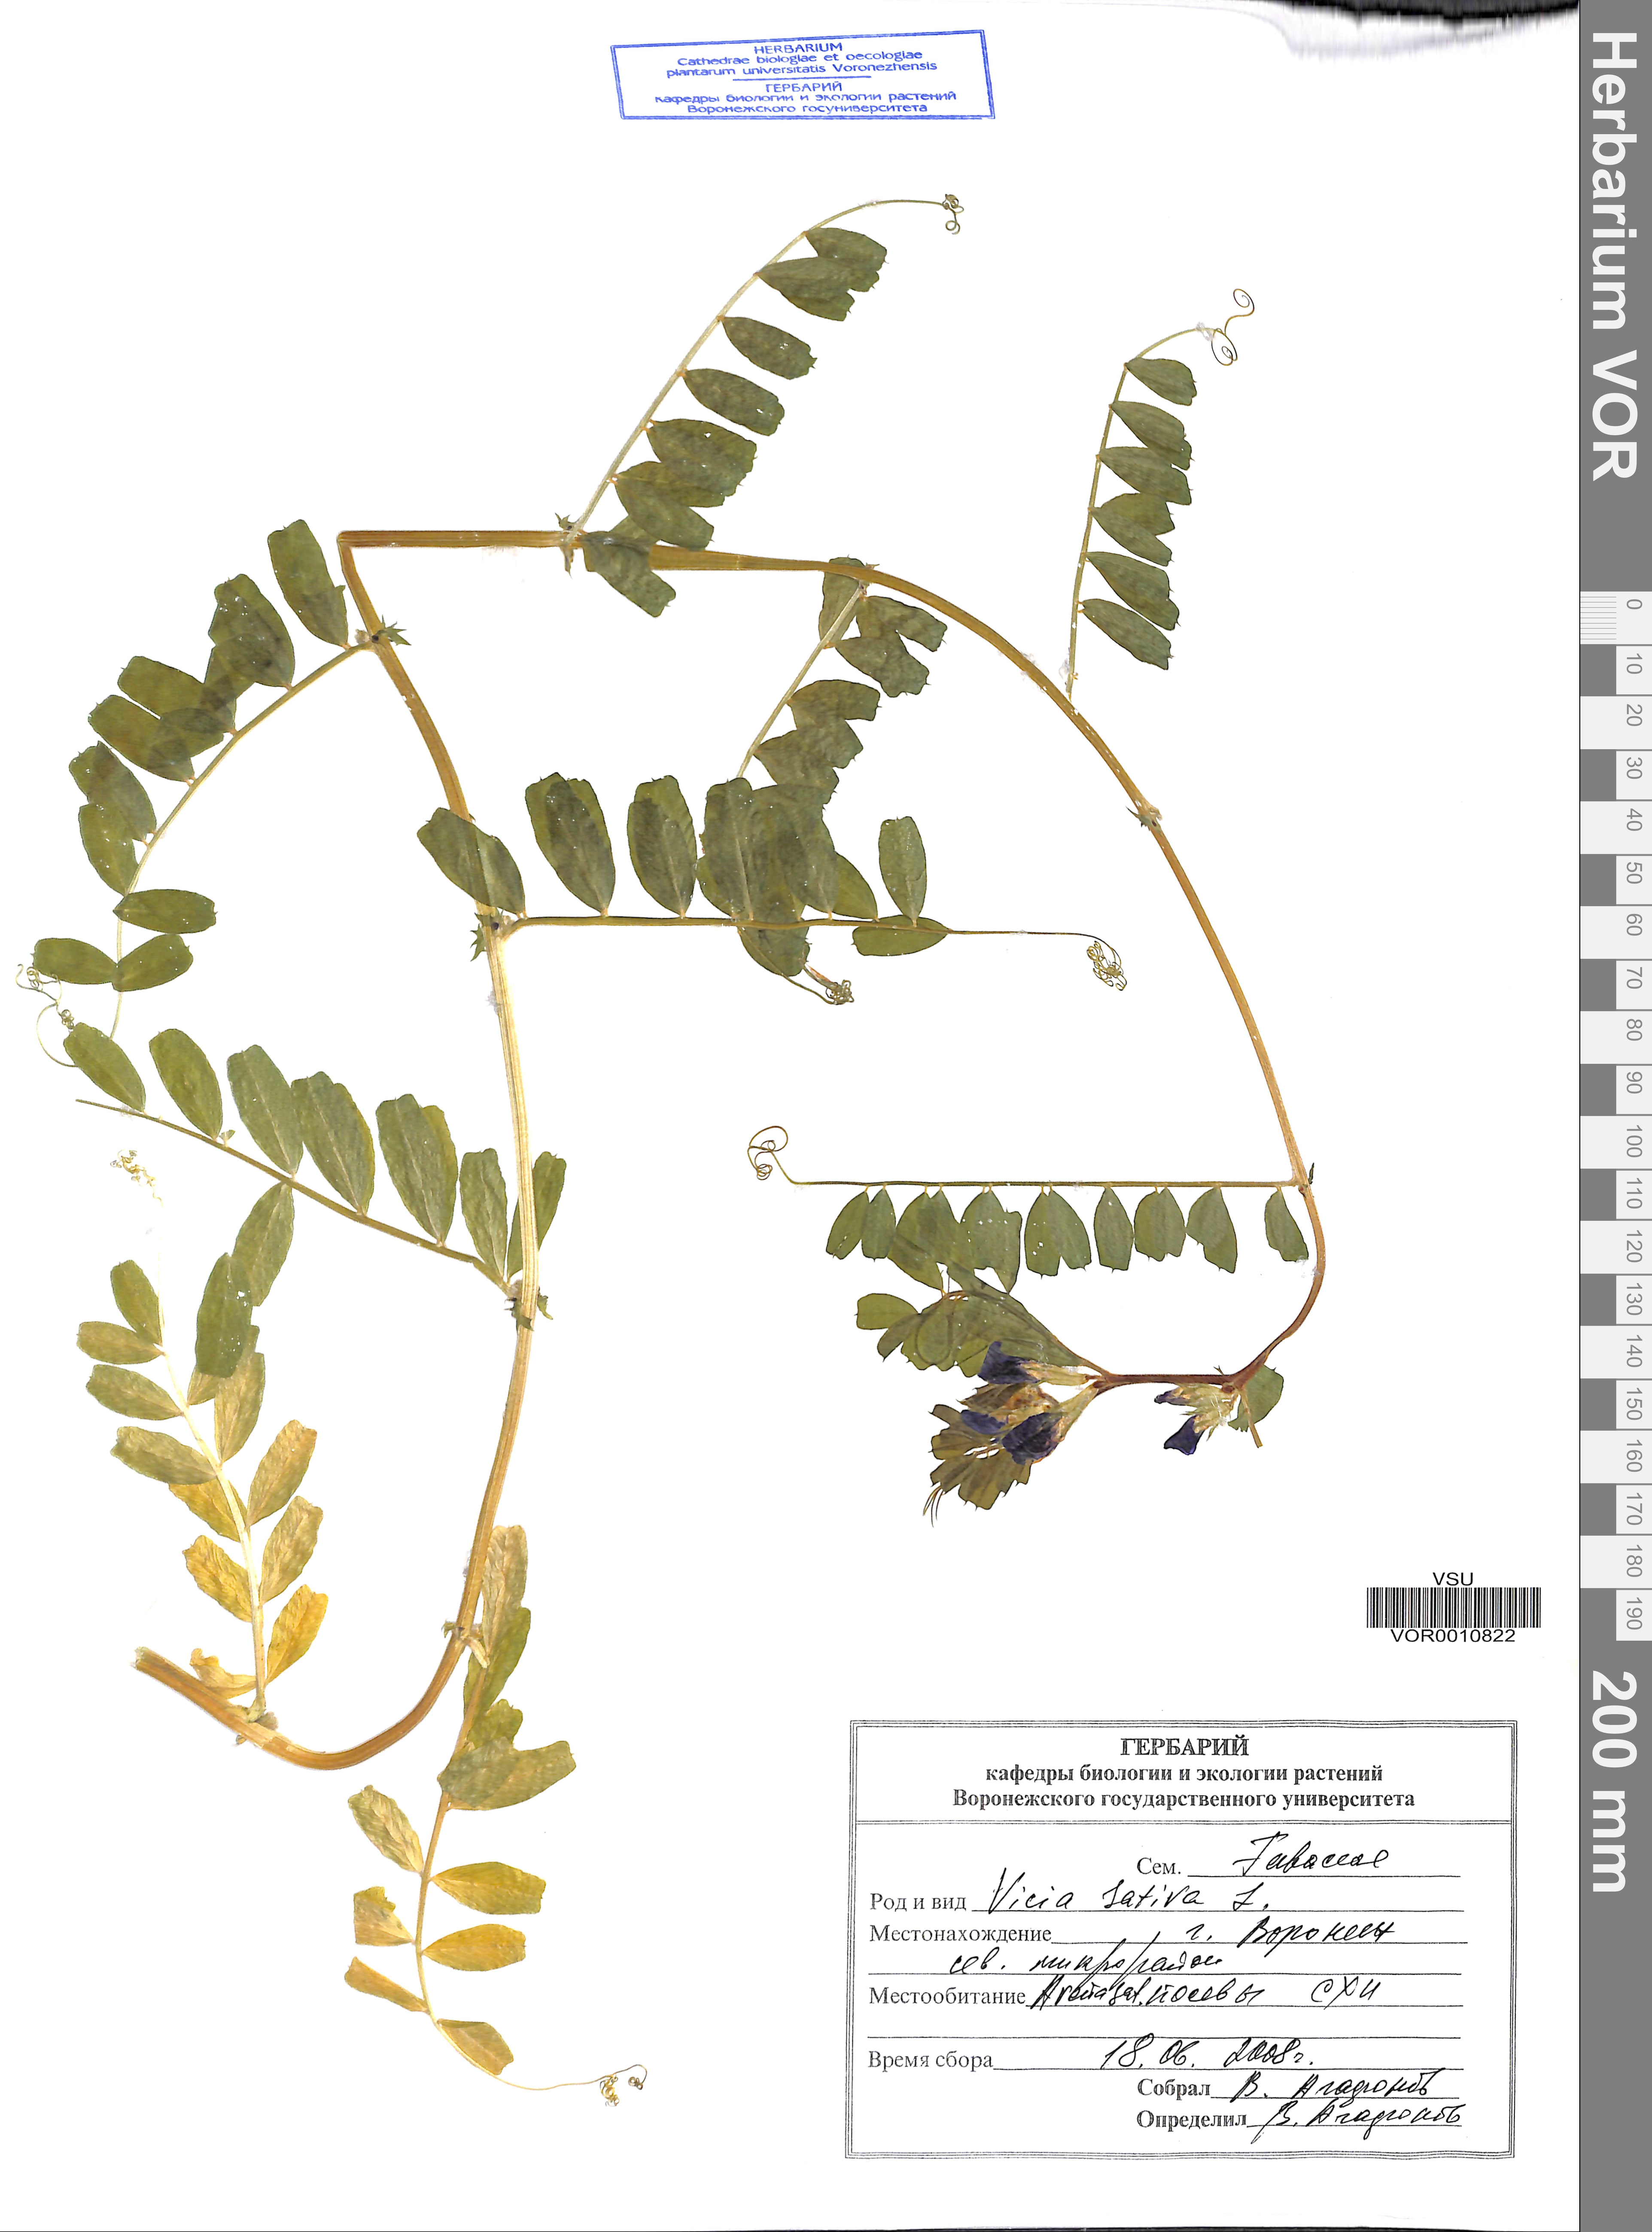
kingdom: Plantae
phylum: Tracheophyta
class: Magnoliopsida
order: Fabales
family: Fabaceae
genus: Vicia
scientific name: Vicia sativa
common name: Garden vetch
